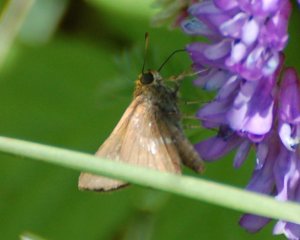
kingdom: Animalia
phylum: Arthropoda
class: Insecta
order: Lepidoptera
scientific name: Lepidoptera
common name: Butterflies
